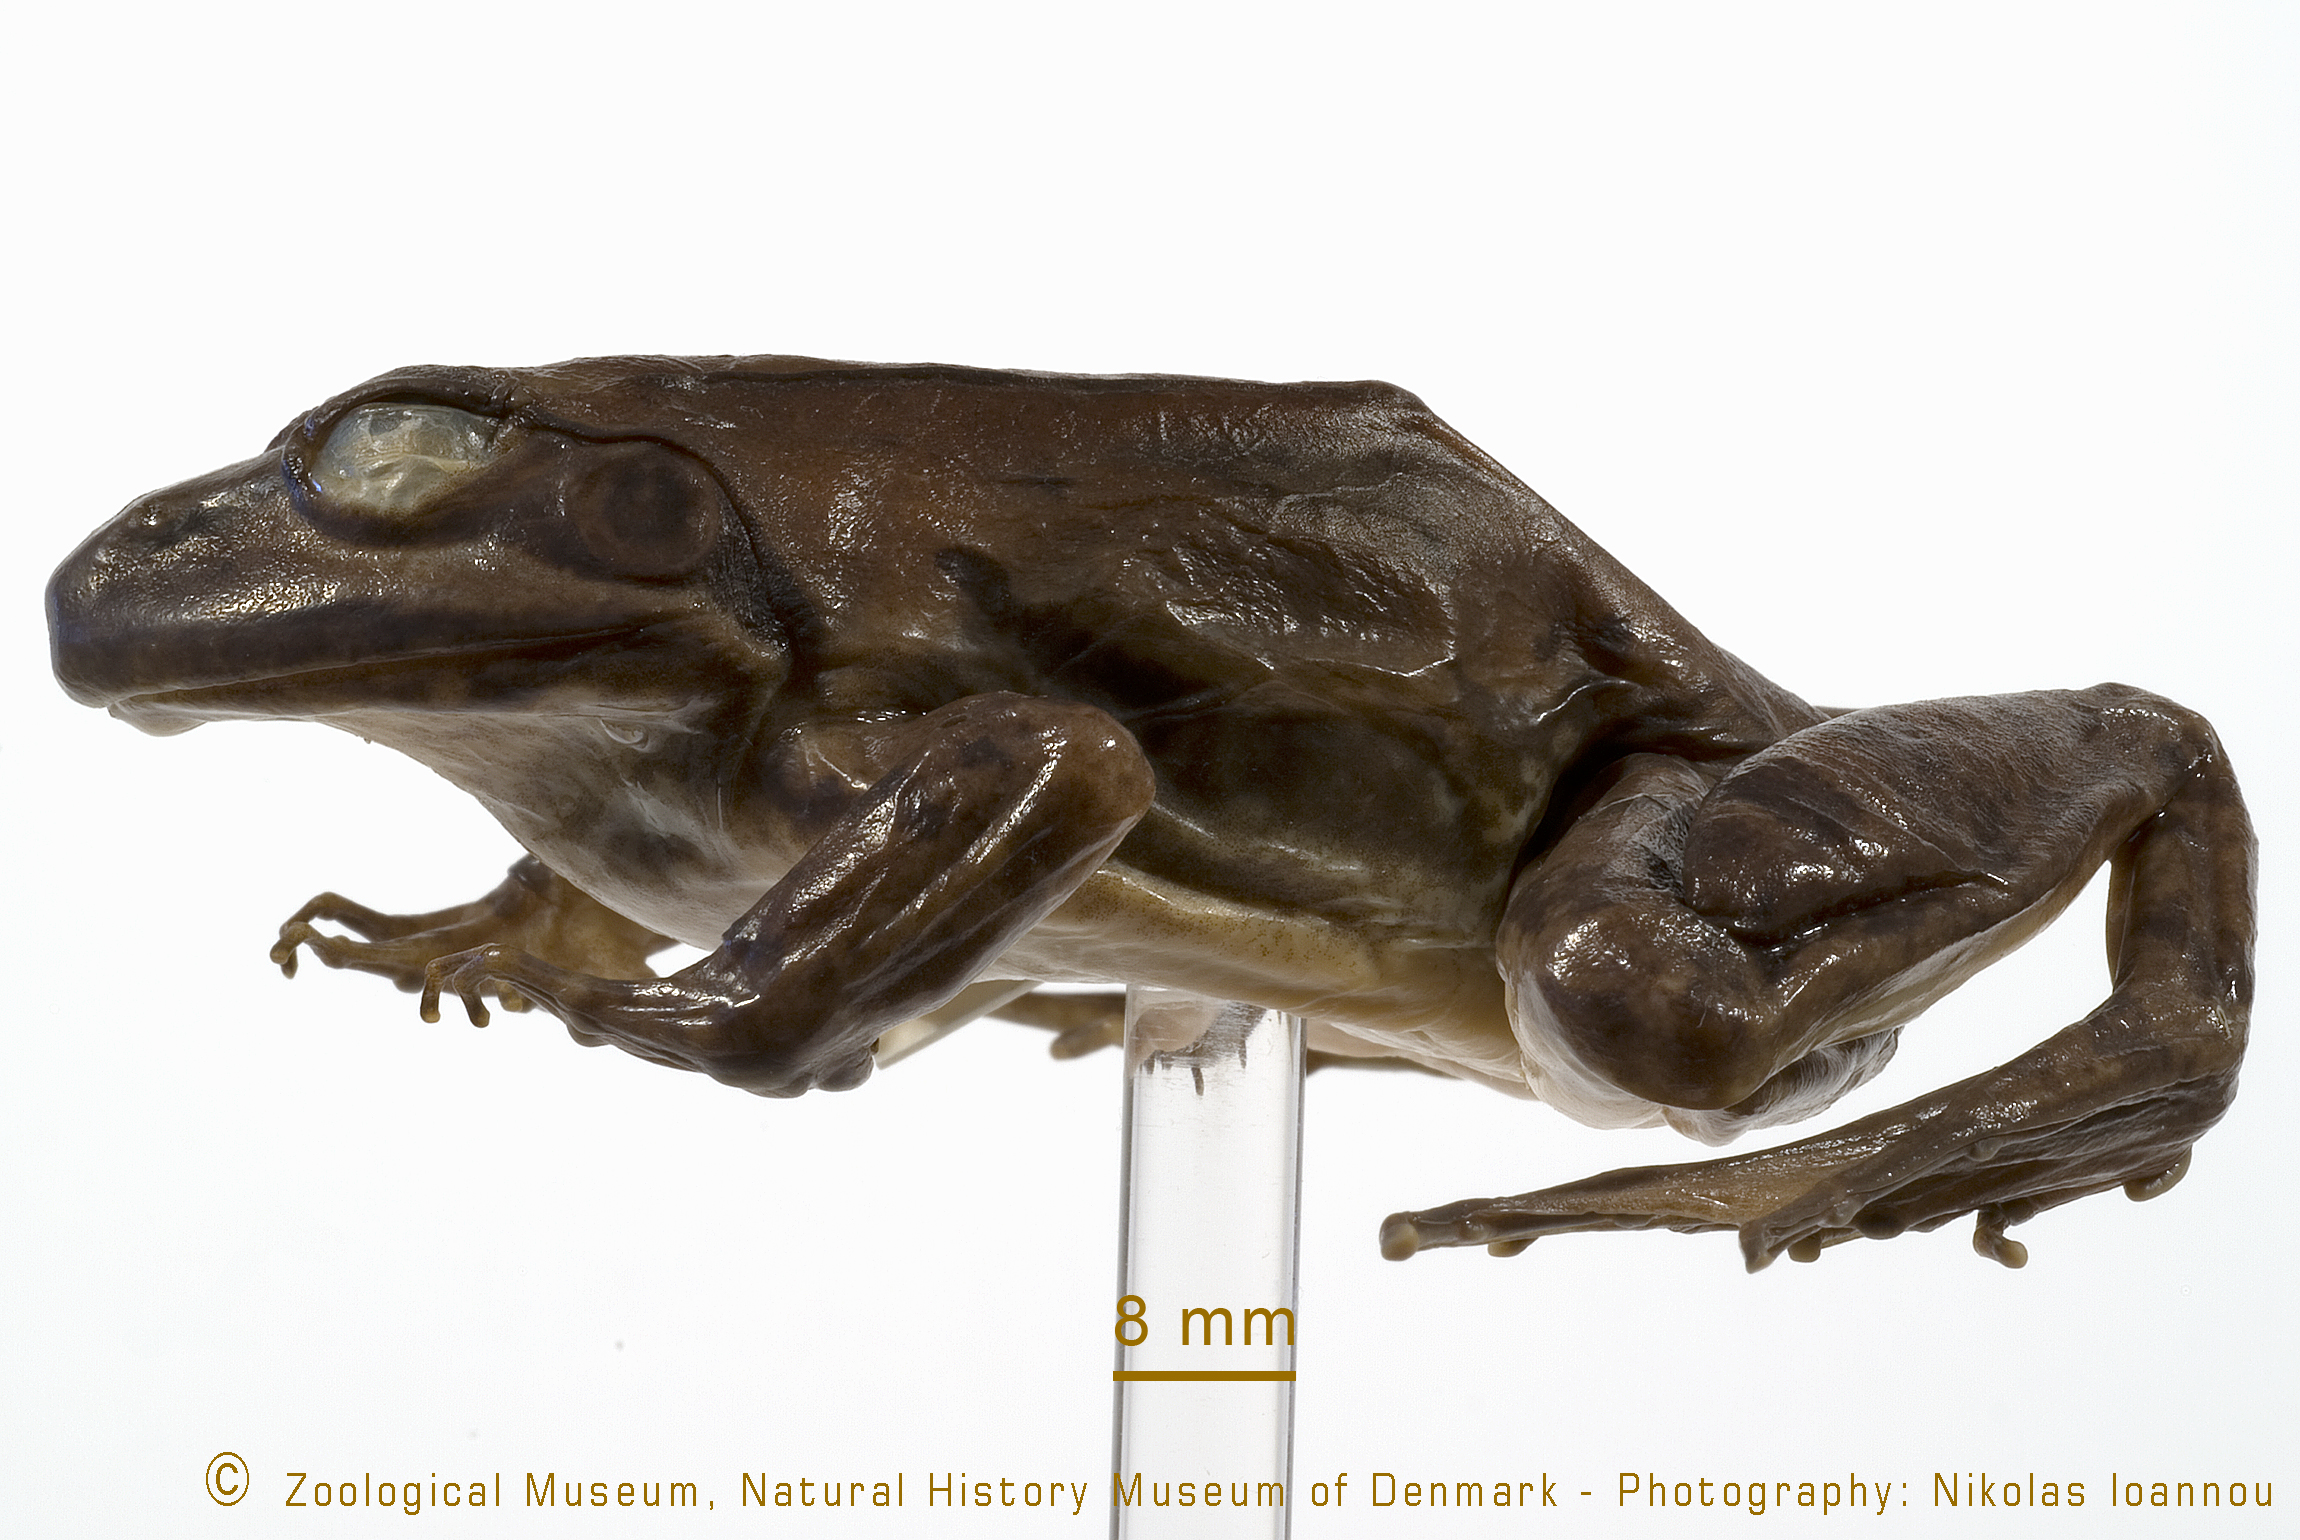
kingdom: Animalia
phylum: Chordata
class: Amphibia
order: Anura
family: Pyxicephalidae
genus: Amietia
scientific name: Amietia angolensis
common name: Dusky-throated frog
